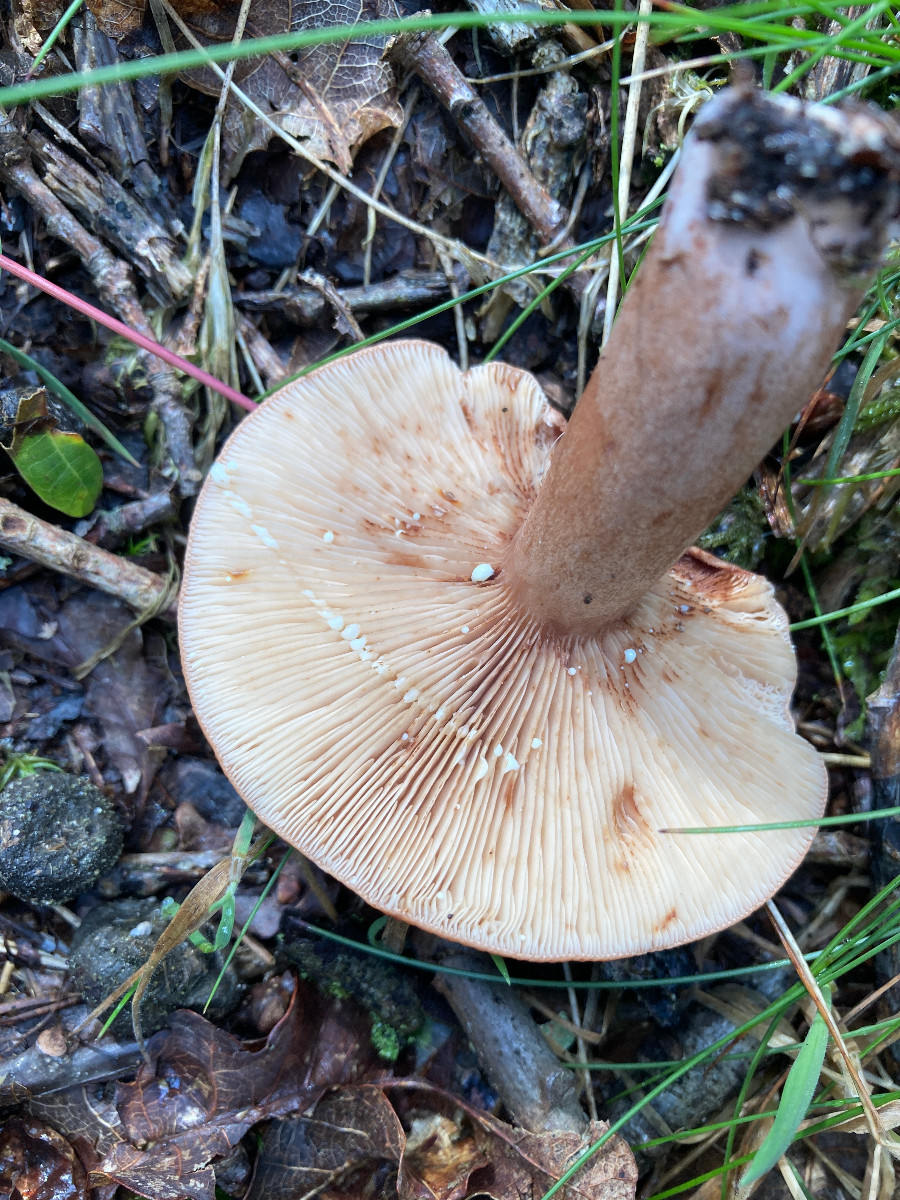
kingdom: Fungi
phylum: Basidiomycota
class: Agaricomycetes
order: Russulales
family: Russulaceae
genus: Lactarius
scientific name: Lactarius quietus
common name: ege-mælkehat
